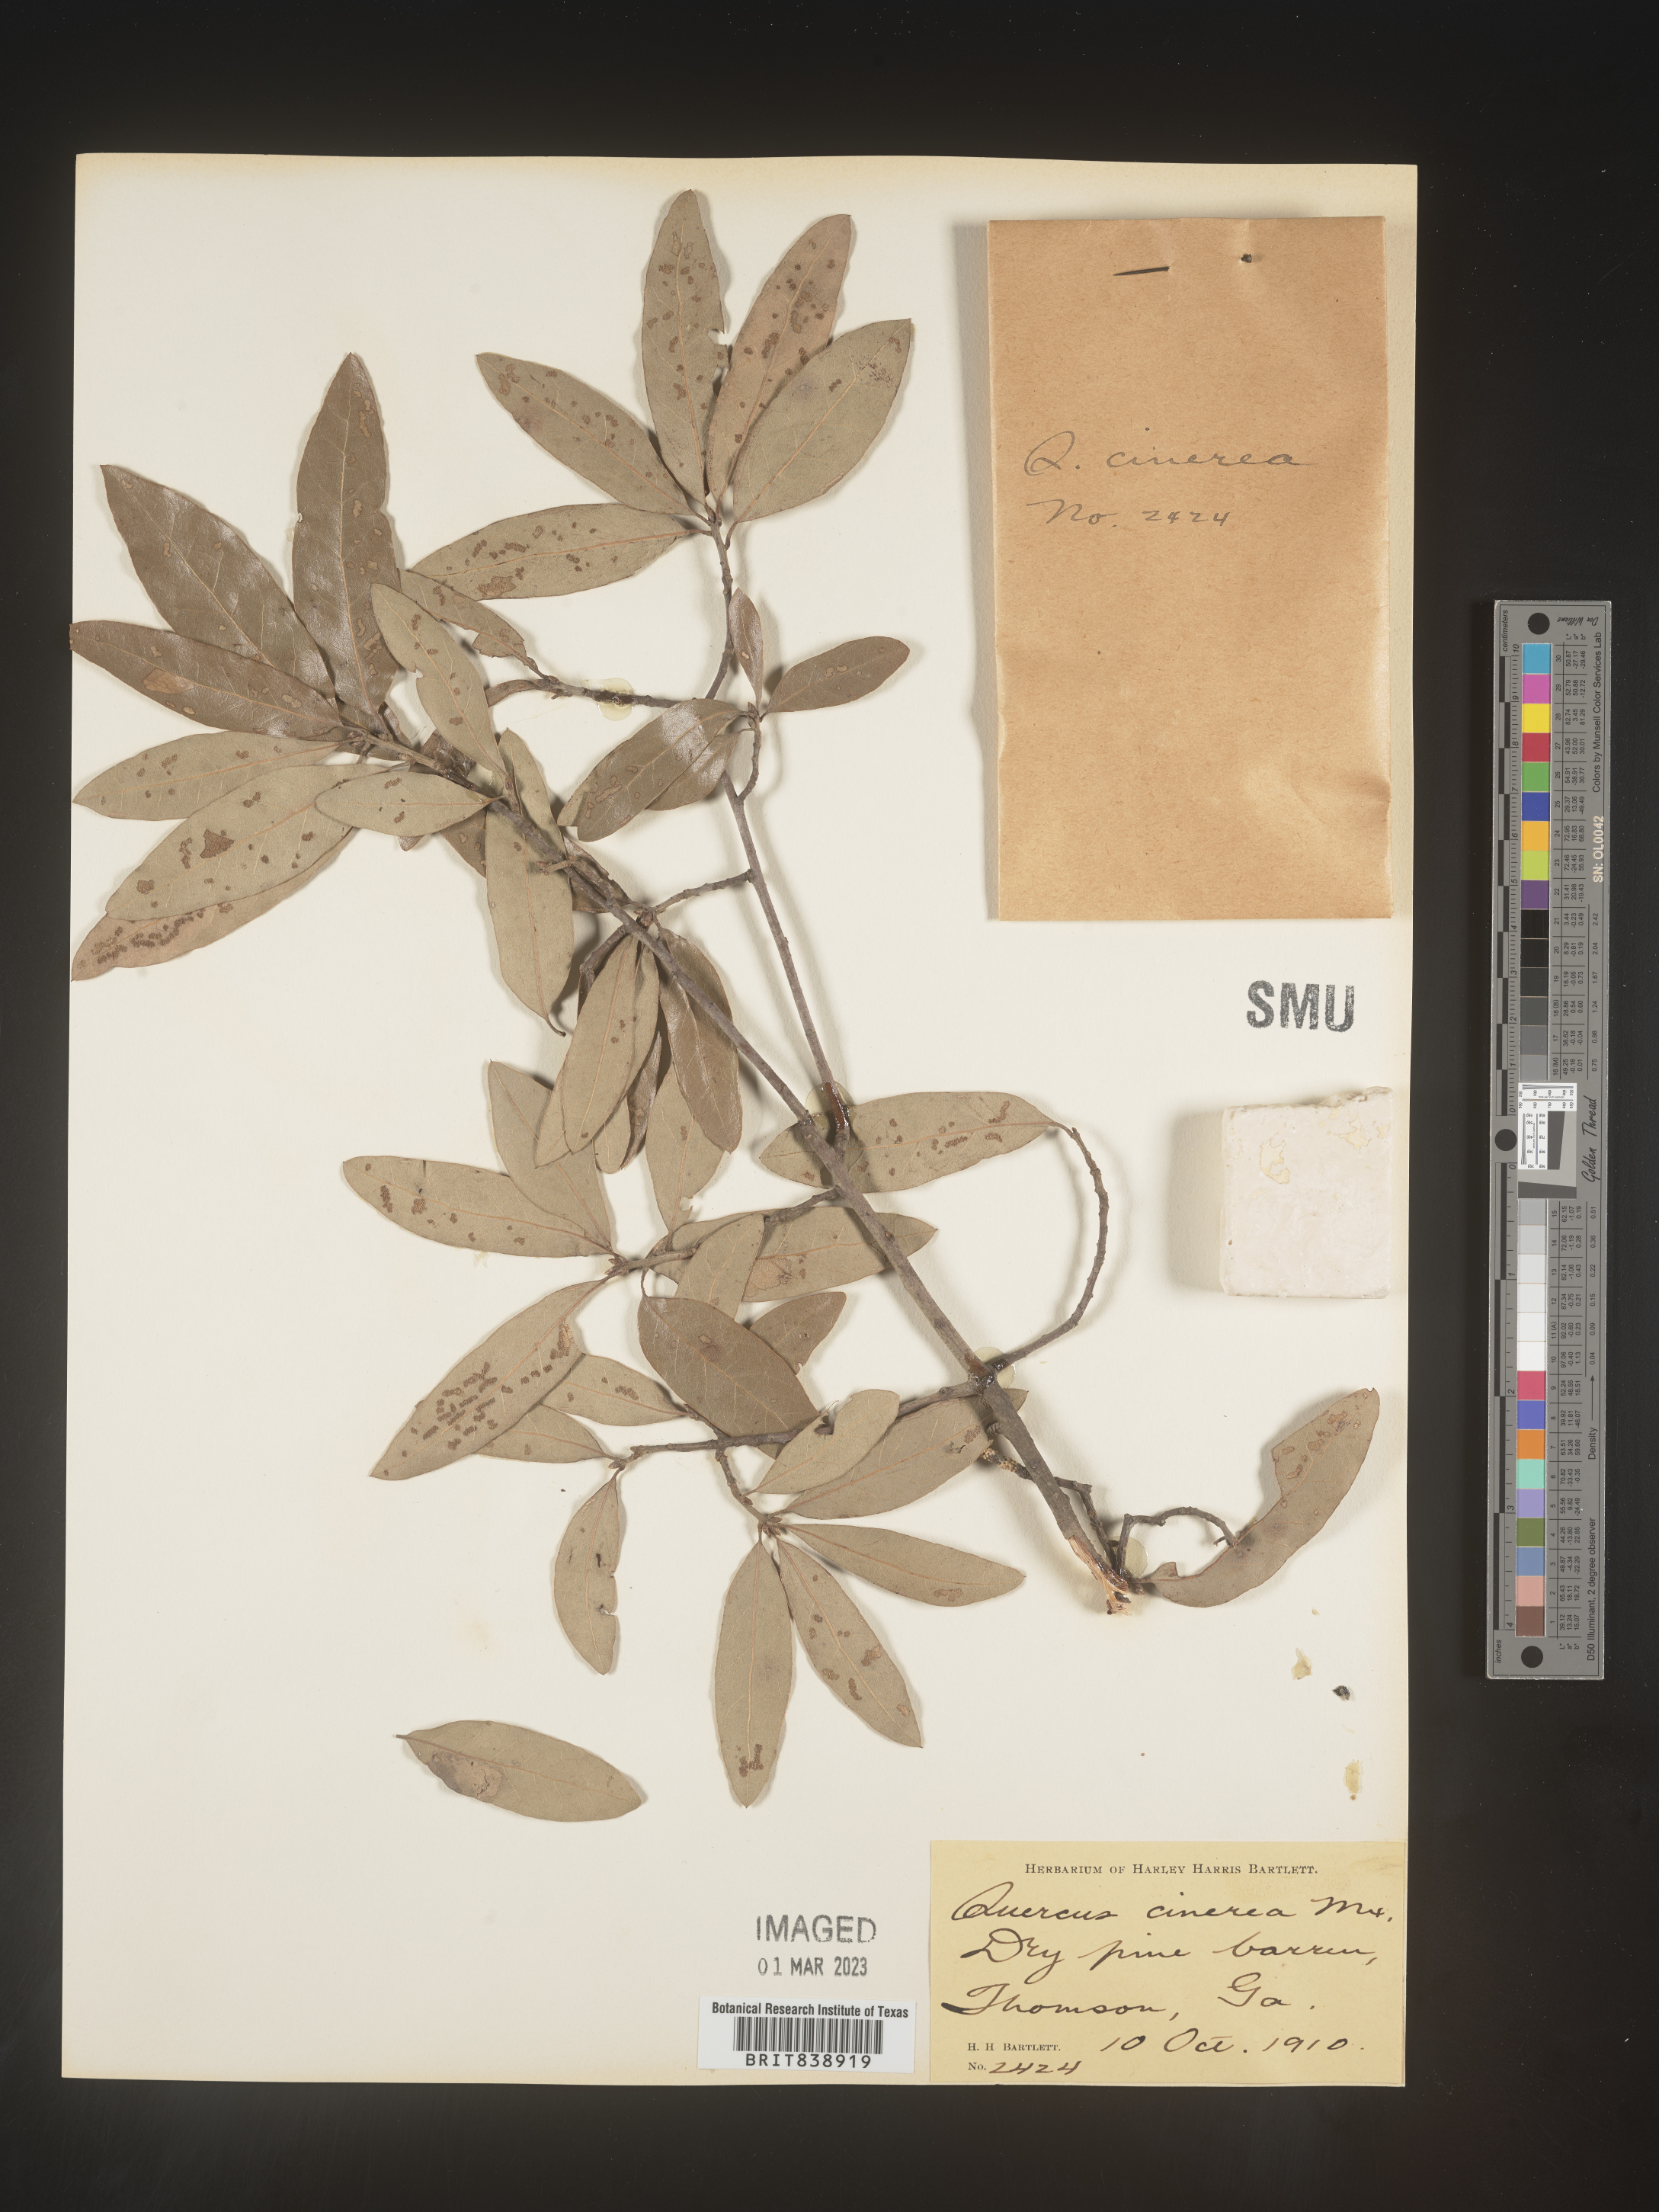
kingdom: Plantae
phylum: Tracheophyta
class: Magnoliopsida
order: Fagales
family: Fagaceae
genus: Quercus
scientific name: Quercus incana
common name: Bluejack oak
